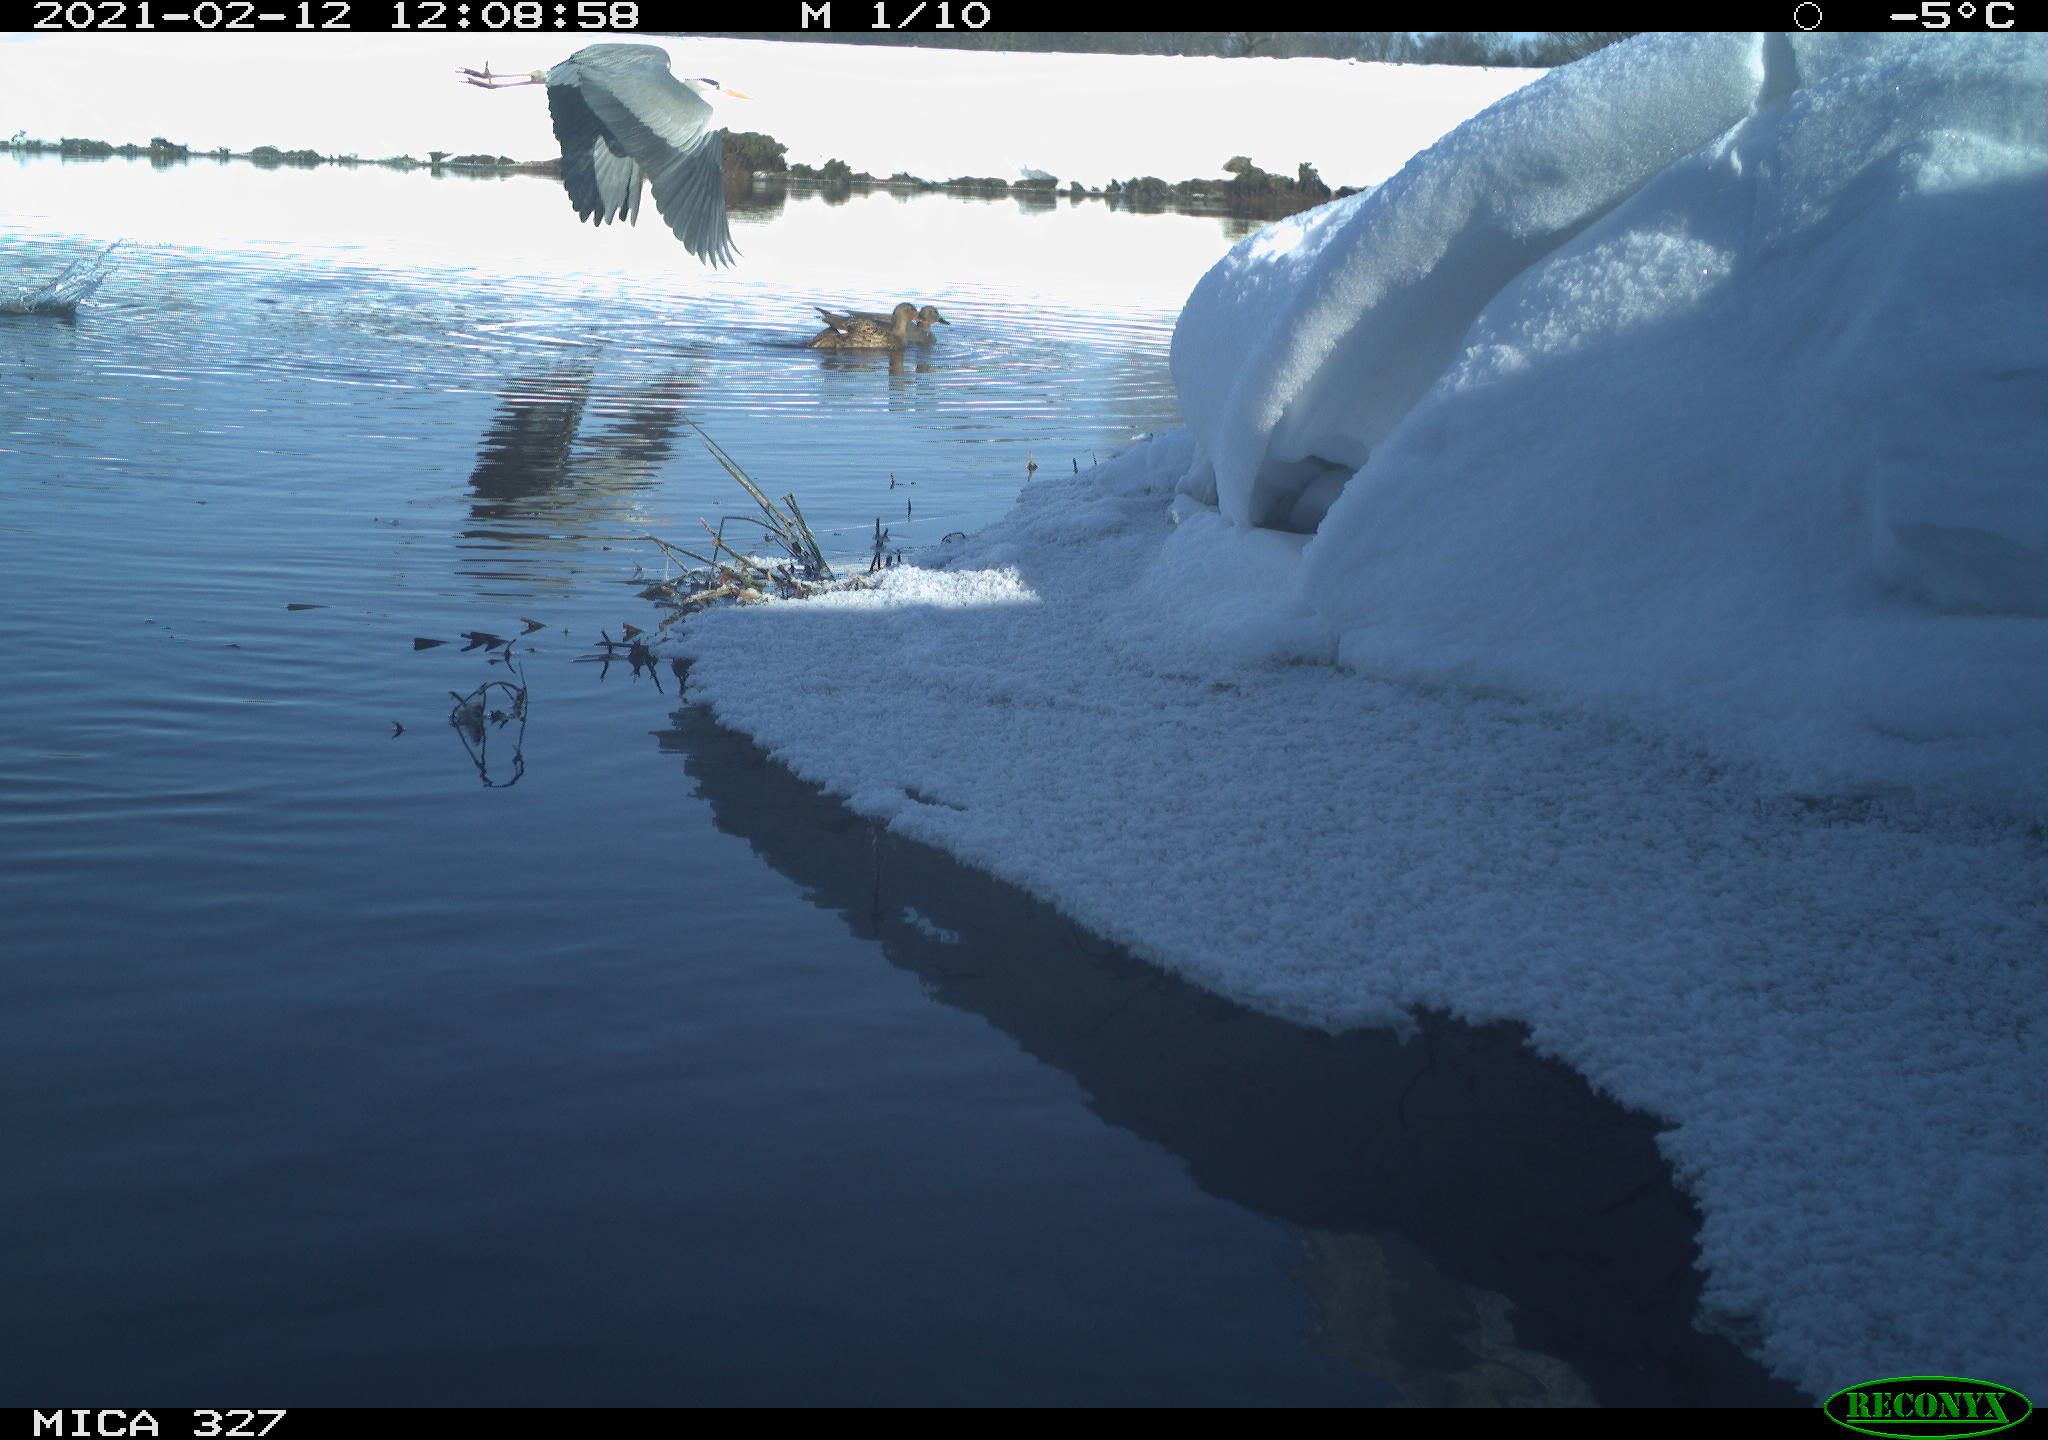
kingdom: Animalia
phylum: Chordata
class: Aves
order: Anseriformes
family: Anatidae
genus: Anas
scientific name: Anas
